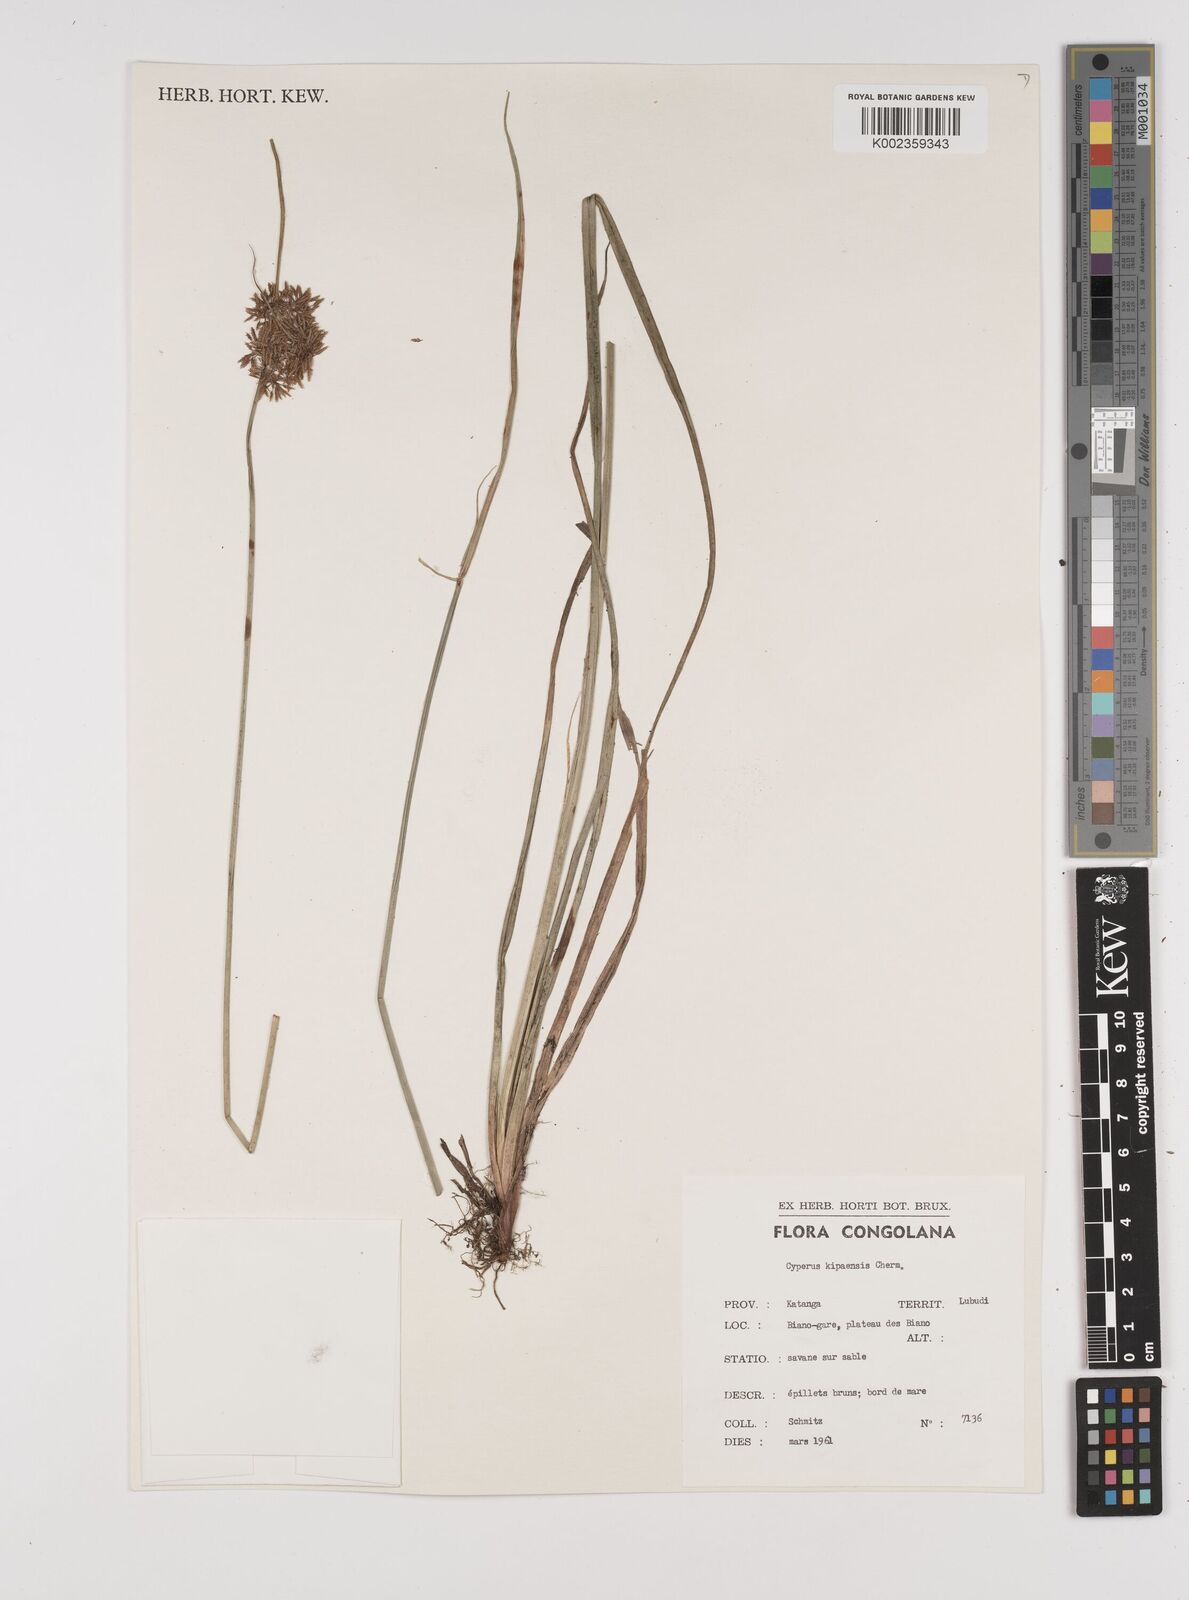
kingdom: Plantae
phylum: Tracheophyta
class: Liliopsida
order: Poales
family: Cyperaceae
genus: Cyperus
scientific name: Cyperus kipasensis
